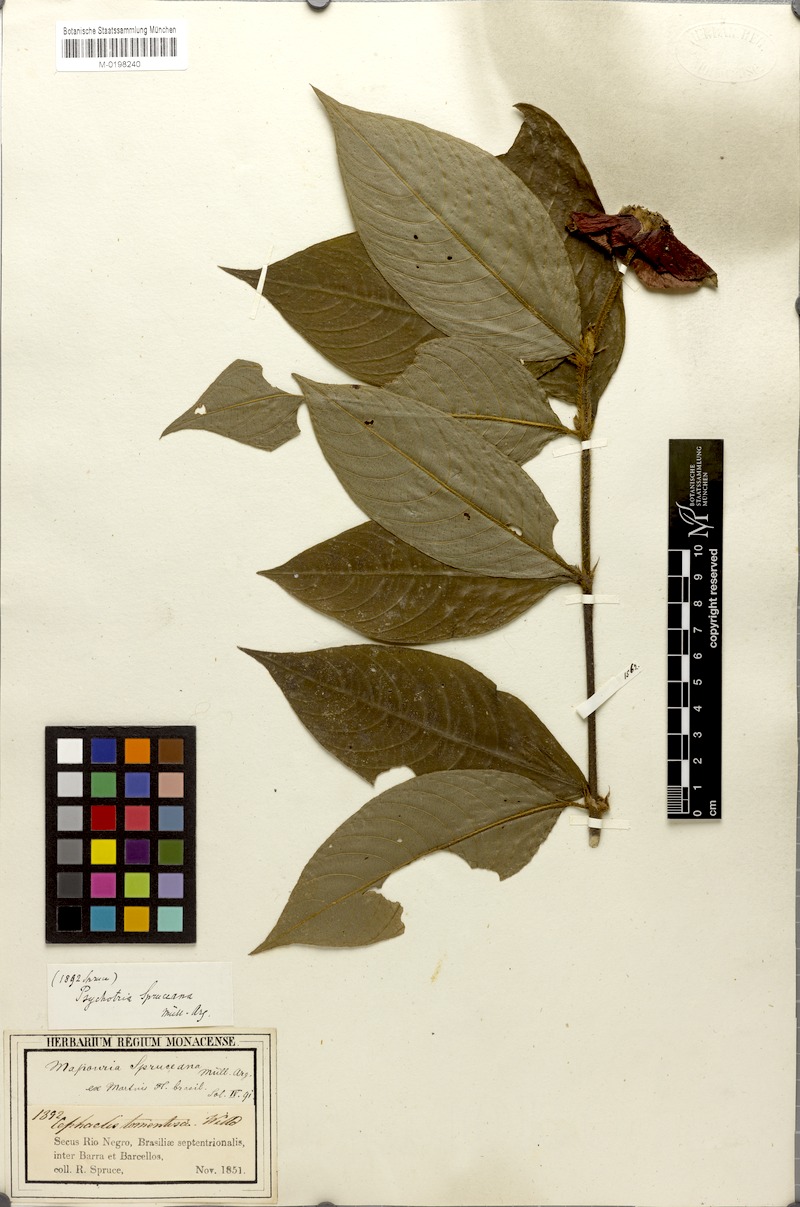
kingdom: Plantae
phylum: Tracheophyta
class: Magnoliopsida
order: Gentianales
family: Rubiaceae
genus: Rudgea
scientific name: Rudgea sclerocalyx
